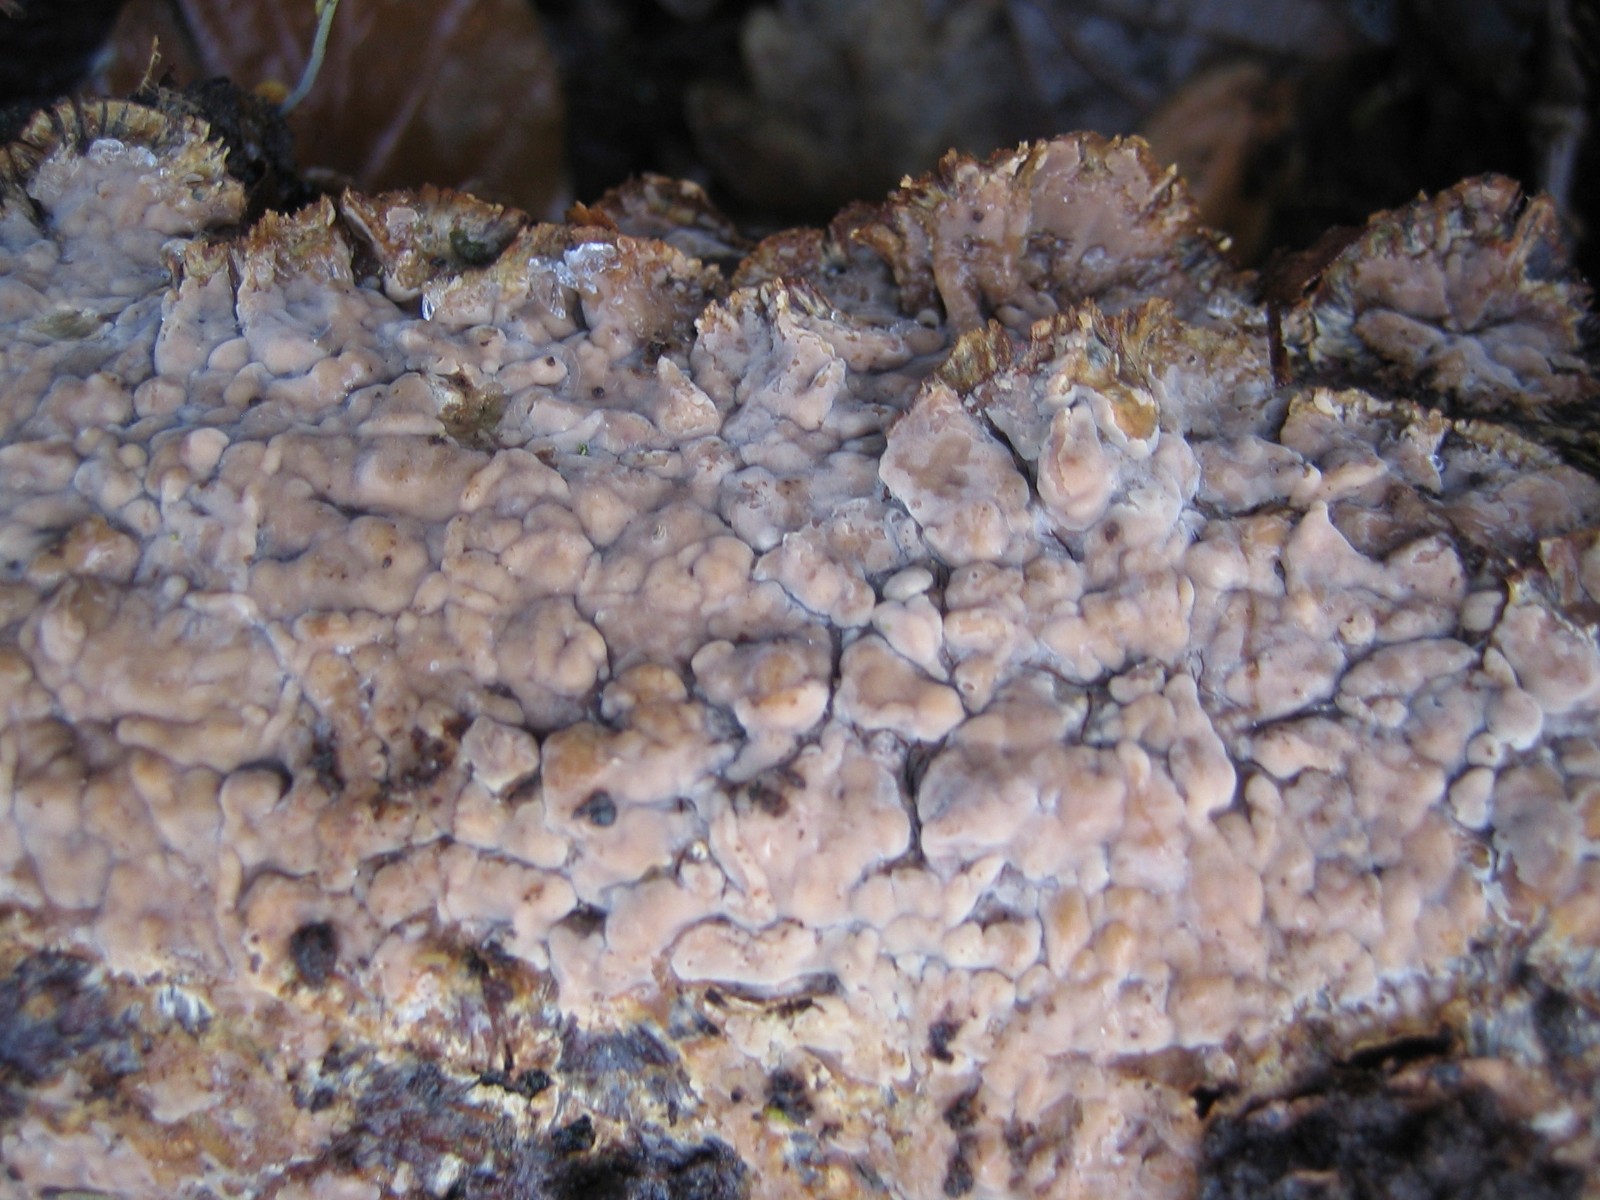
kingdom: Fungi
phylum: Basidiomycota
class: Agaricomycetes
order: Agaricales
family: Physalacriaceae
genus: Cylindrobasidium
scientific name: Cylindrobasidium evolvens
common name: sprækkehinde
